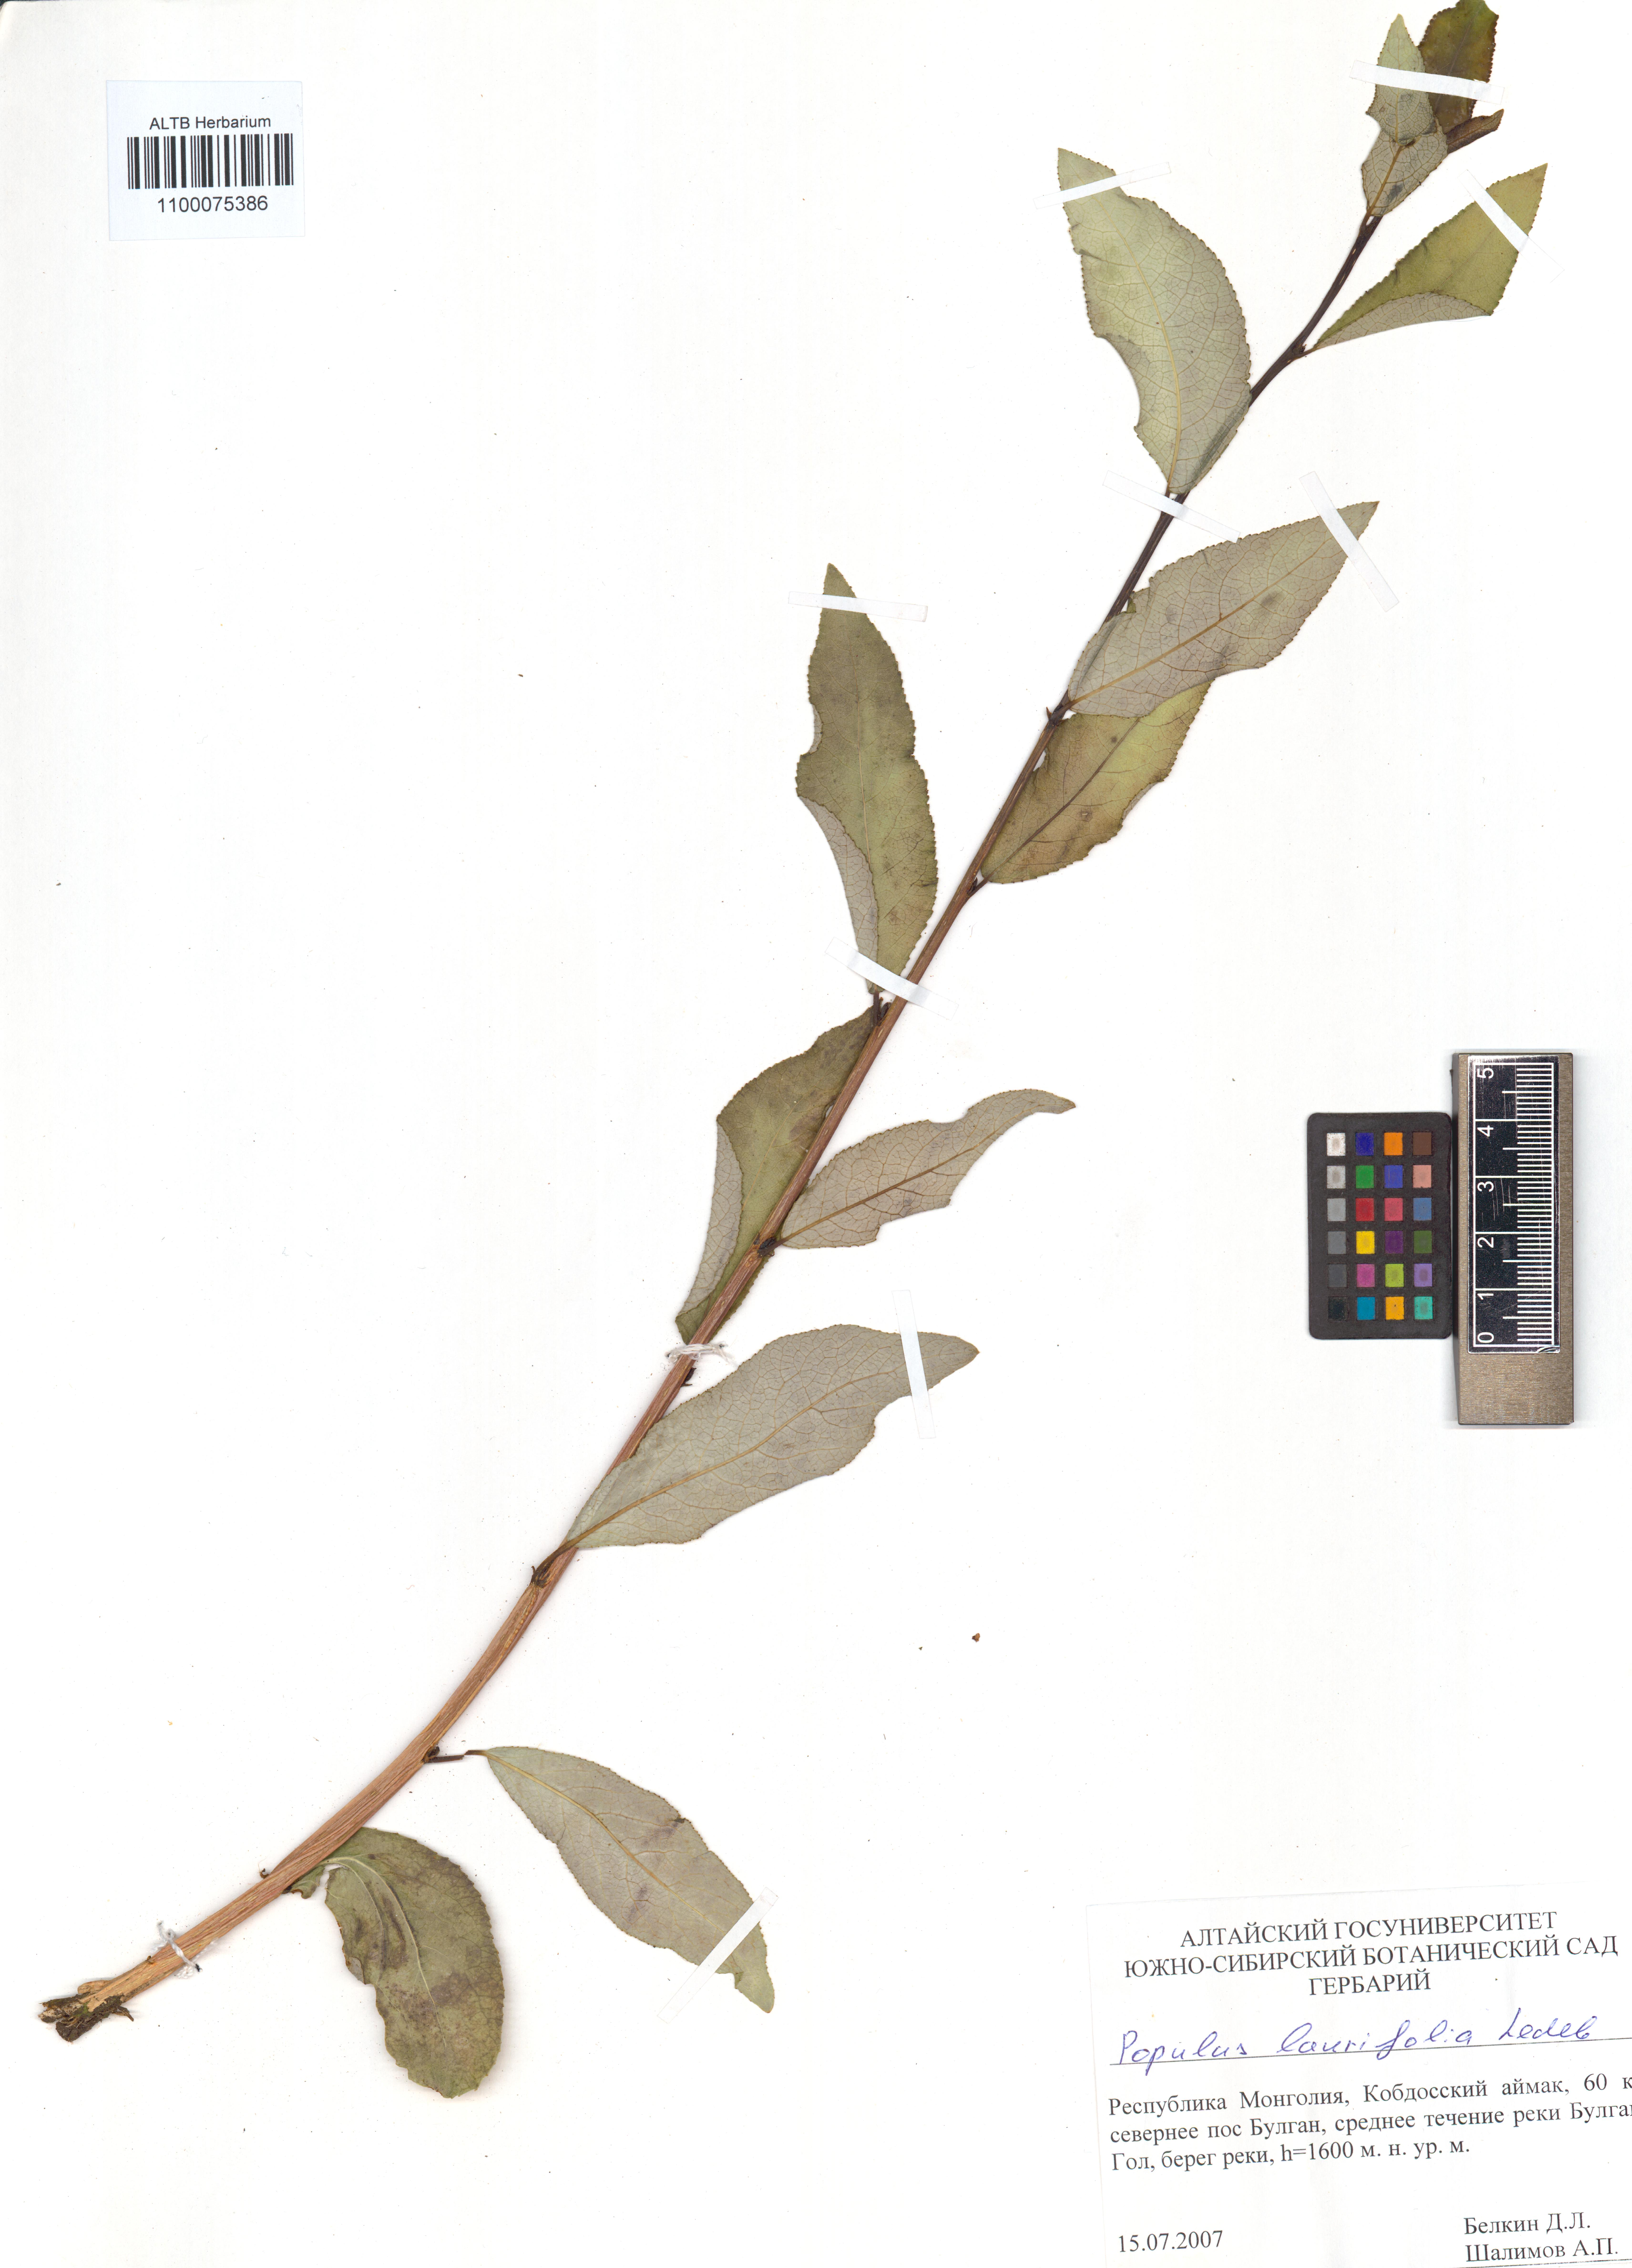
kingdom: Plantae
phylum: Tracheophyta
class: Magnoliopsida
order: Malpighiales
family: Salicaceae
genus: Populus
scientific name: Populus laurifolia
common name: Laurel-leaf poplar
